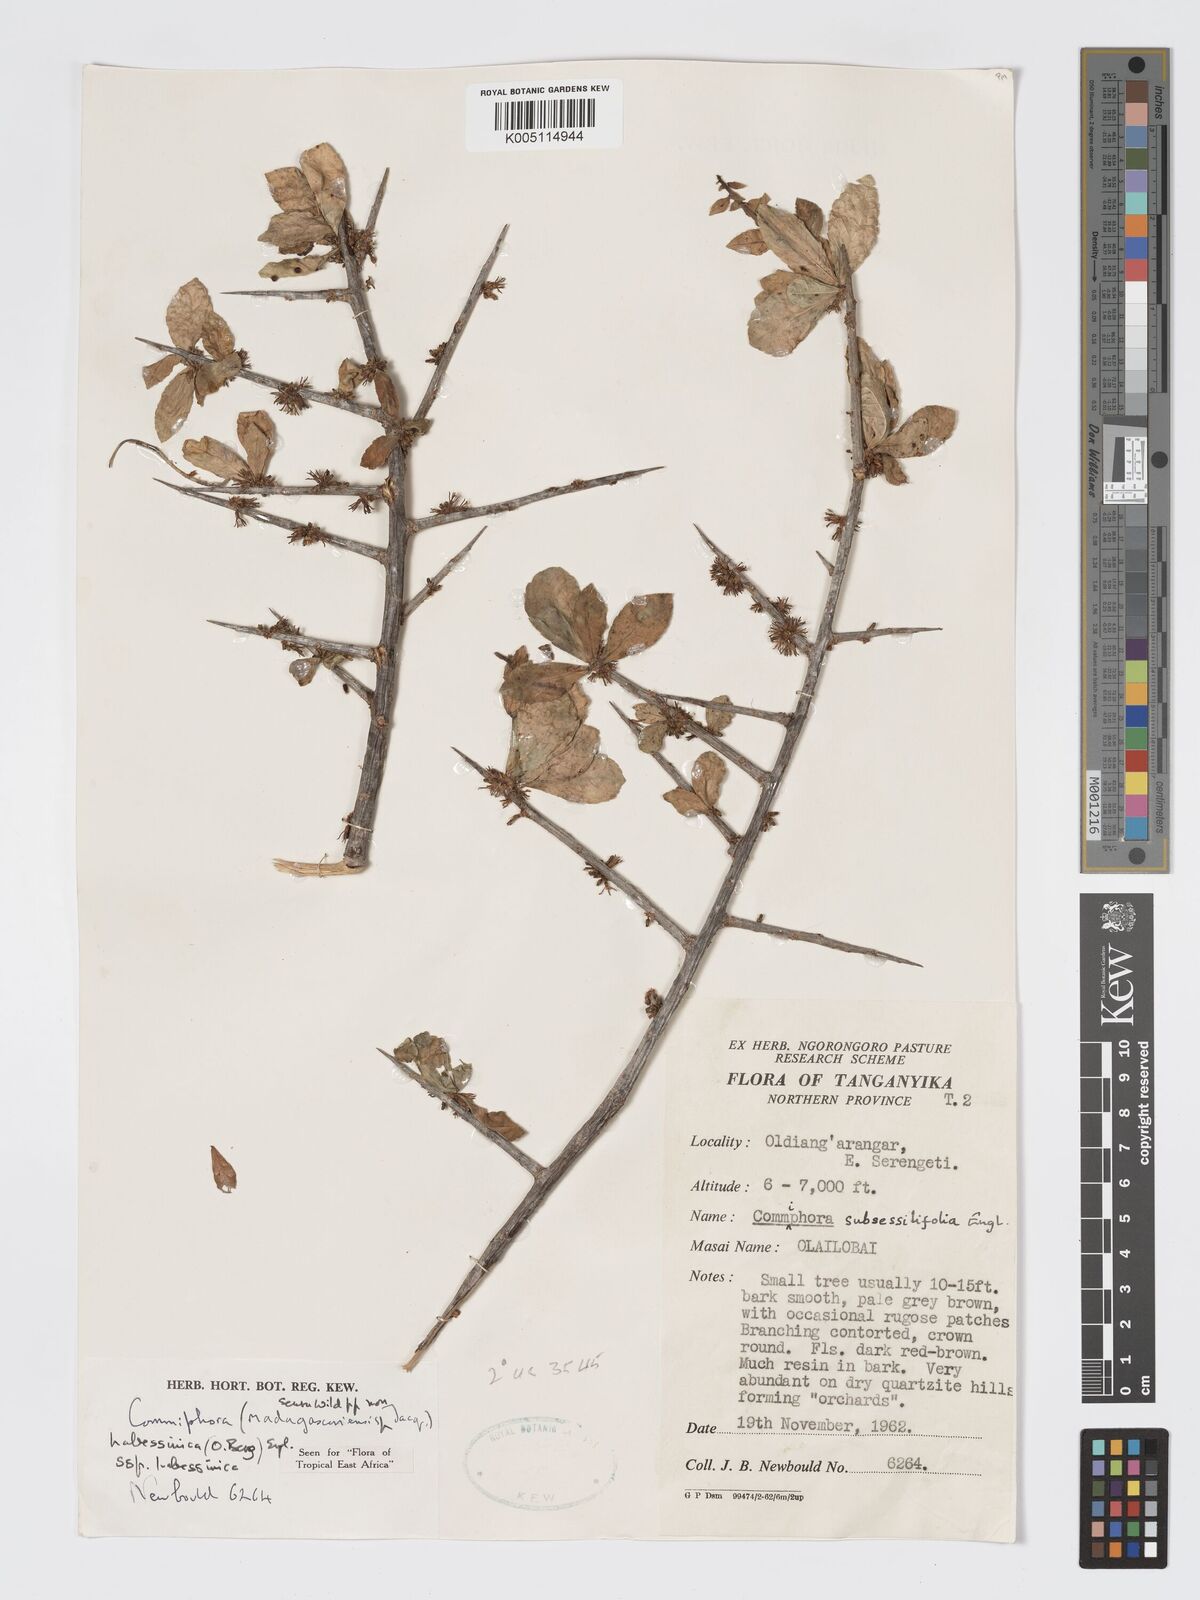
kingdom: Plantae
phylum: Tracheophyta
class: Magnoliopsida
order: Sapindales
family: Burseraceae
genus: Commiphora
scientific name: Commiphora kua
